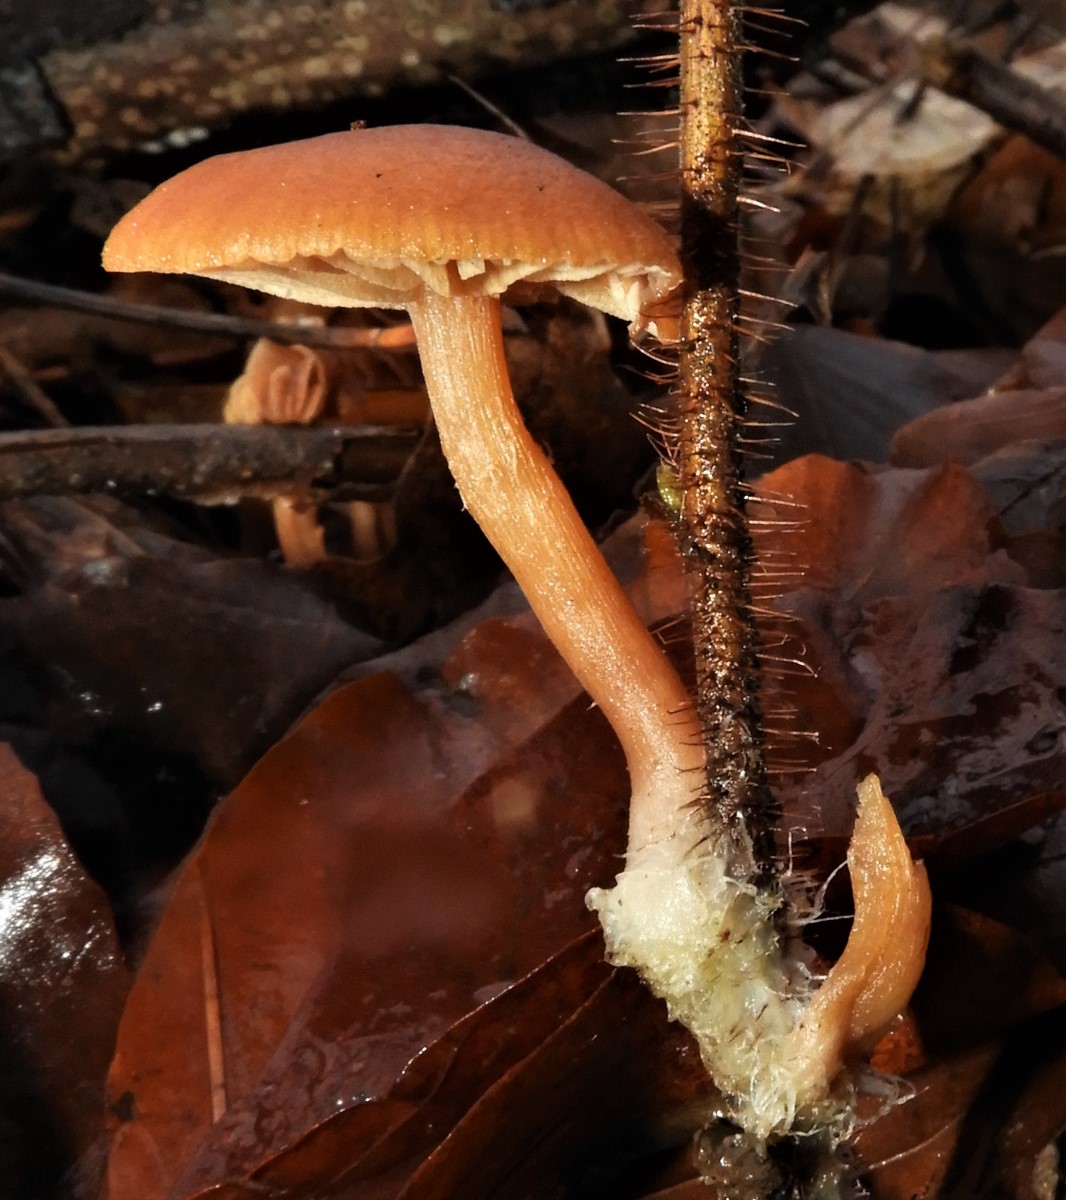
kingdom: Fungi
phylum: Basidiomycota
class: Agaricomycetes
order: Agaricales
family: Tubariaceae
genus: Tubaria
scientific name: Tubaria furfuracea
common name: kliddet fnughat
